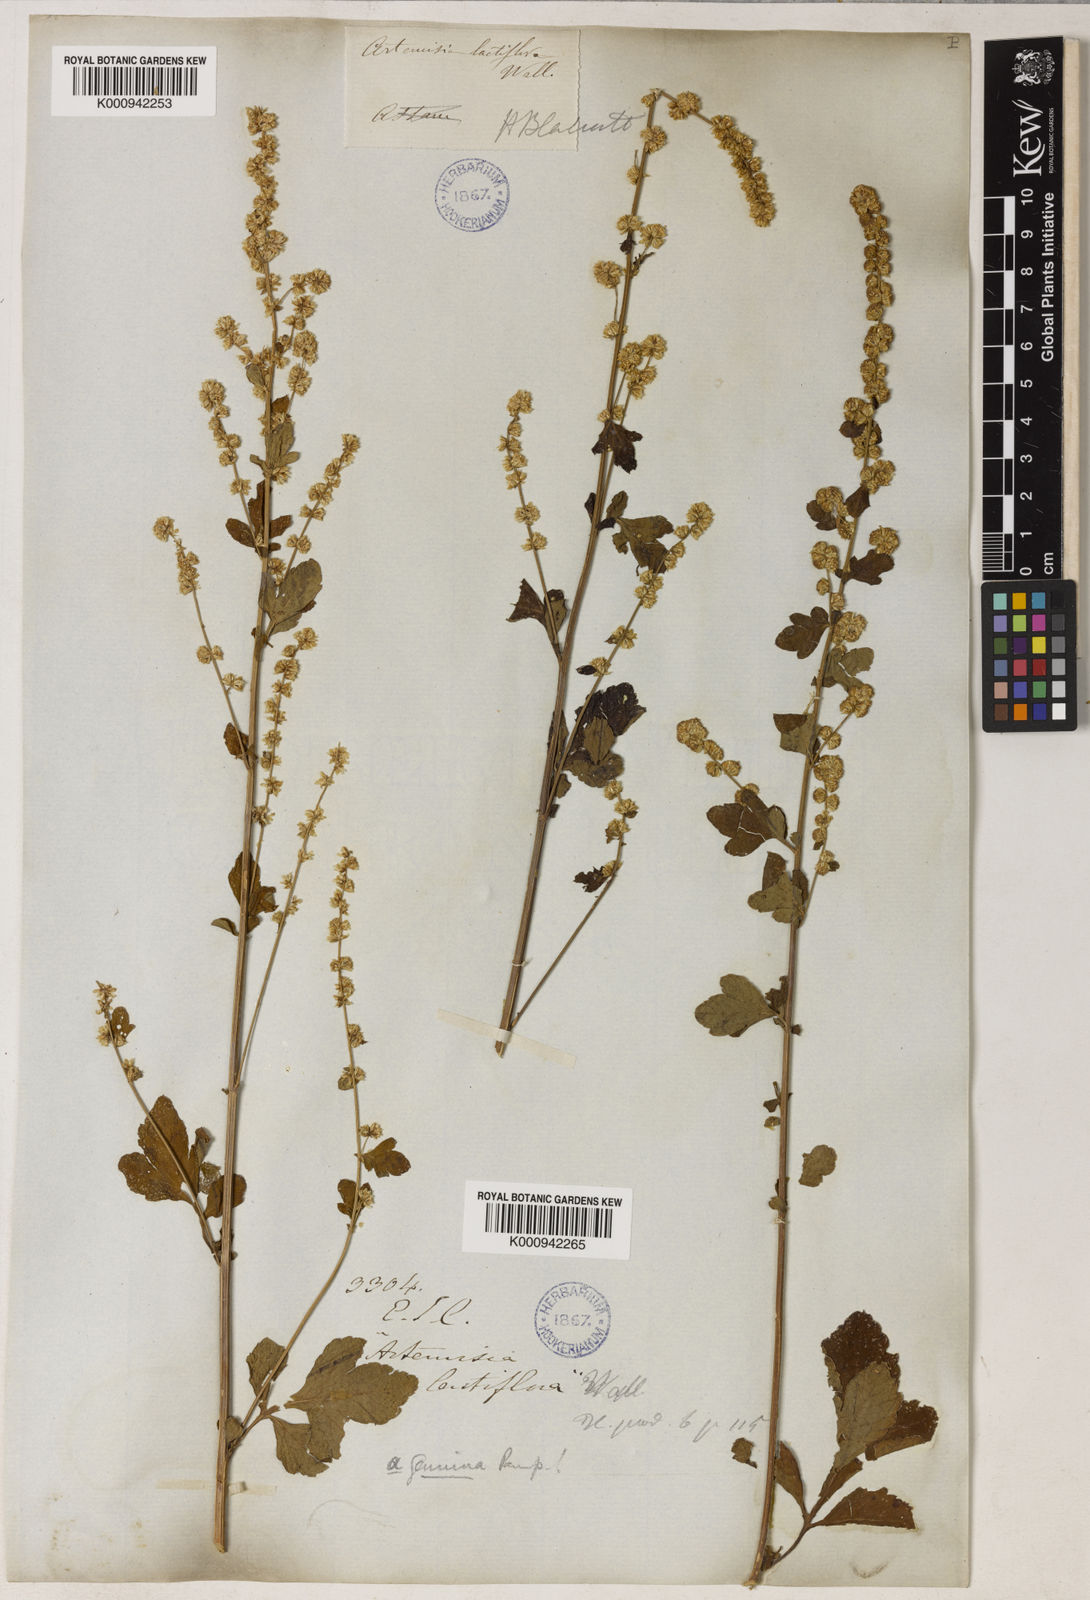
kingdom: Plantae
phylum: Tracheophyta
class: Magnoliopsida
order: Asterales
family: Asteraceae
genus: Artemisia
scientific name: Artemisia
